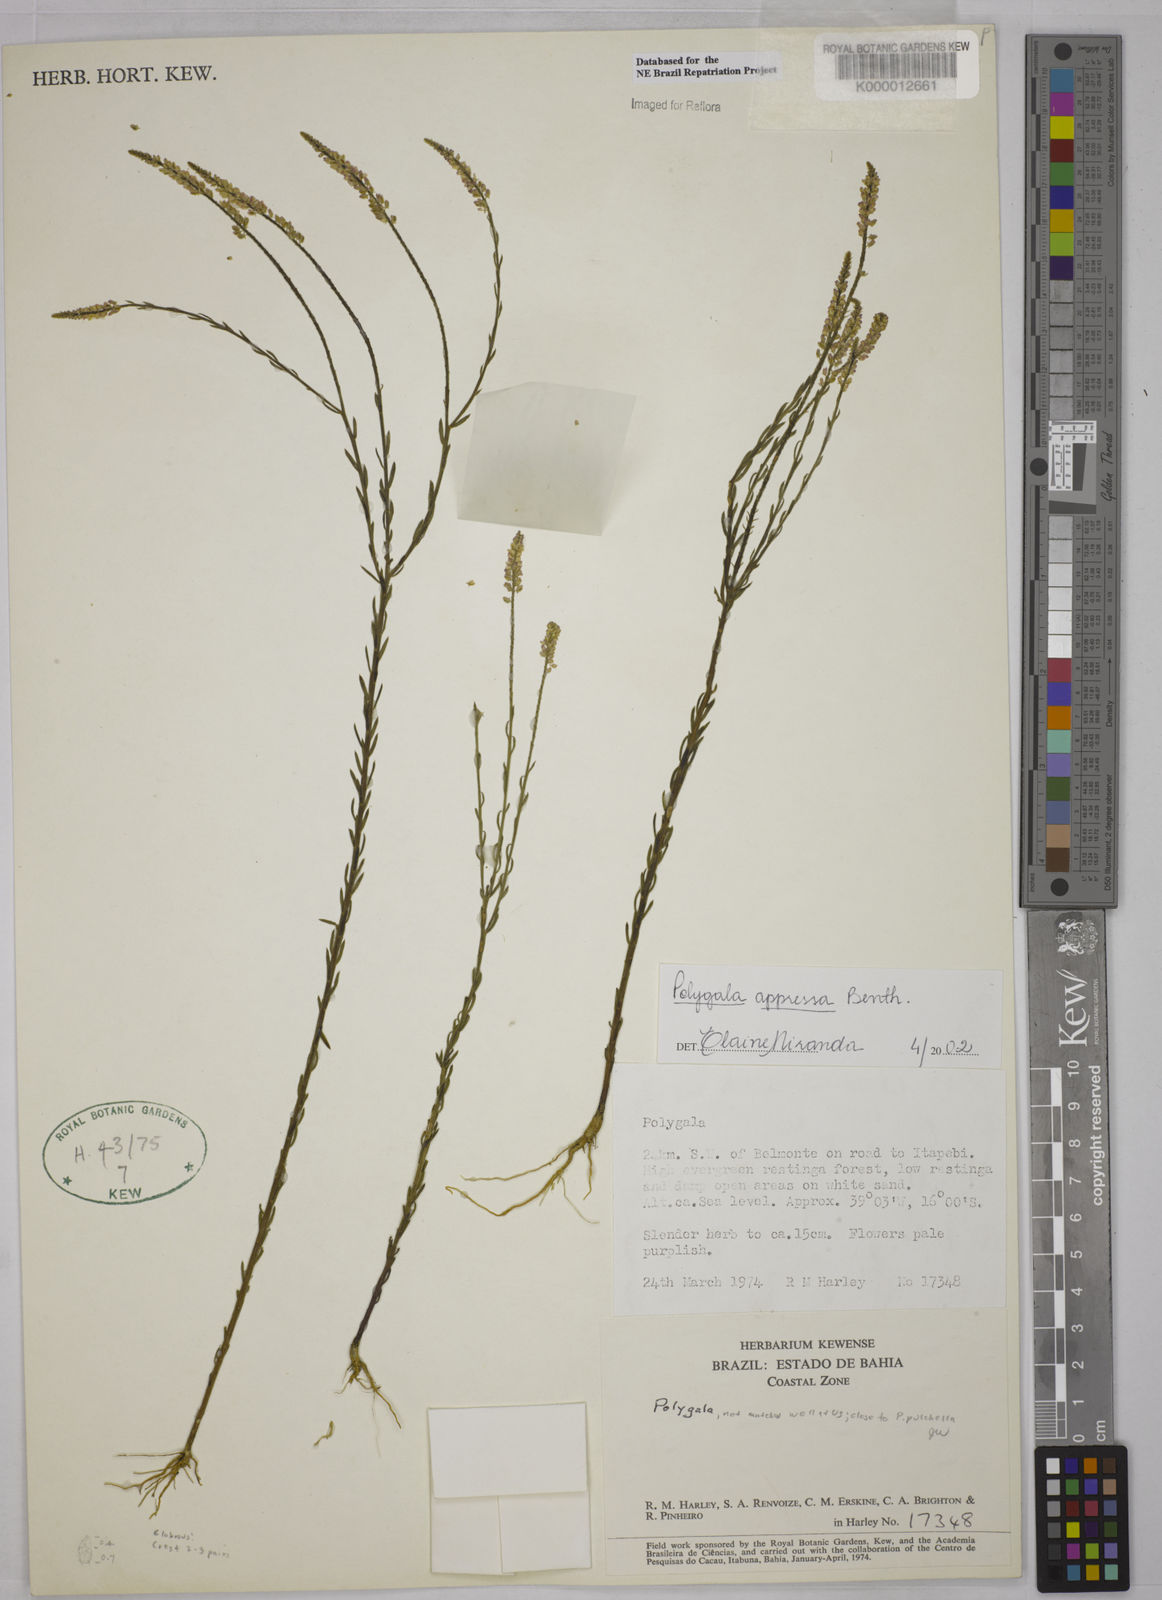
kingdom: Plantae
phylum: Tracheophyta
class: Magnoliopsida
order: Fabales
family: Polygalaceae
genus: Polygala
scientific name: Polygala appressa
